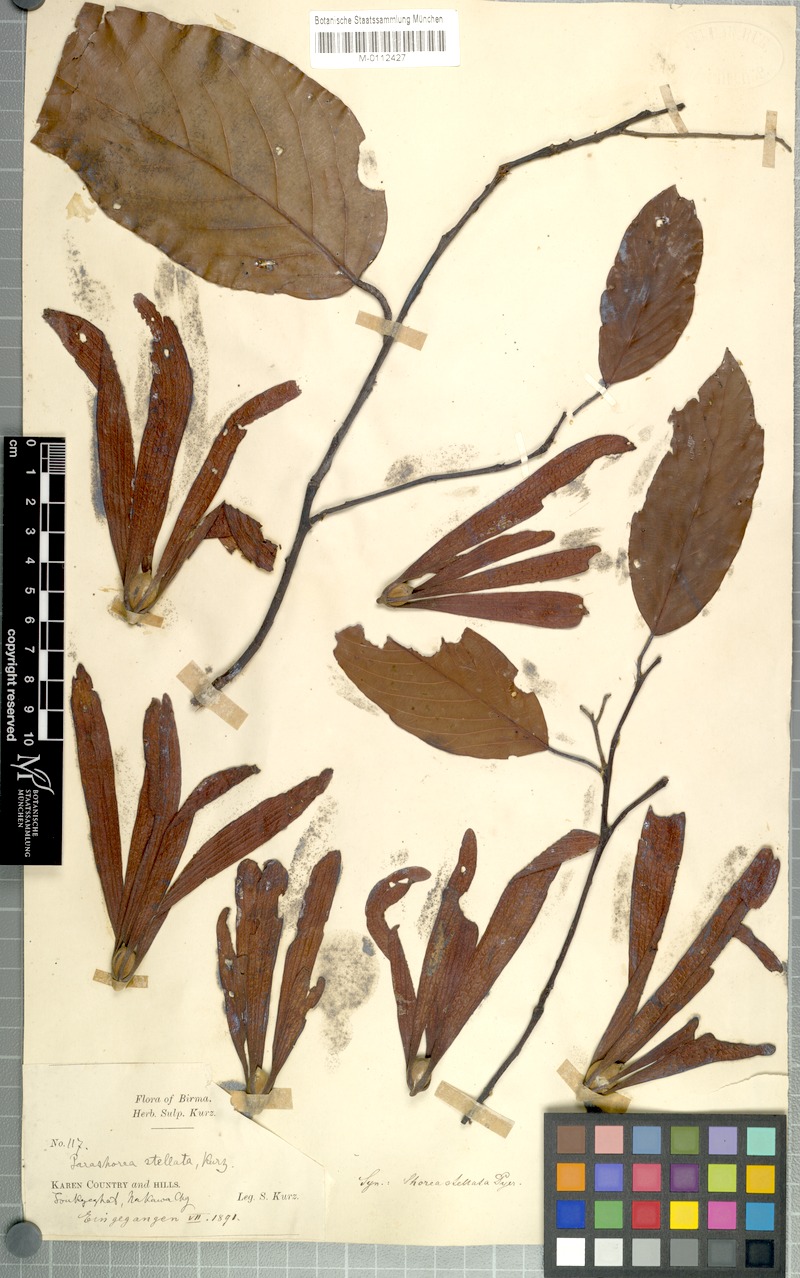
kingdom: Plantae
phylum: Tracheophyta
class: Magnoliopsida
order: Malvales
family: Dipterocarpaceae
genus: Parashorea
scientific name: Parashorea stellata
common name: Thinkadu
